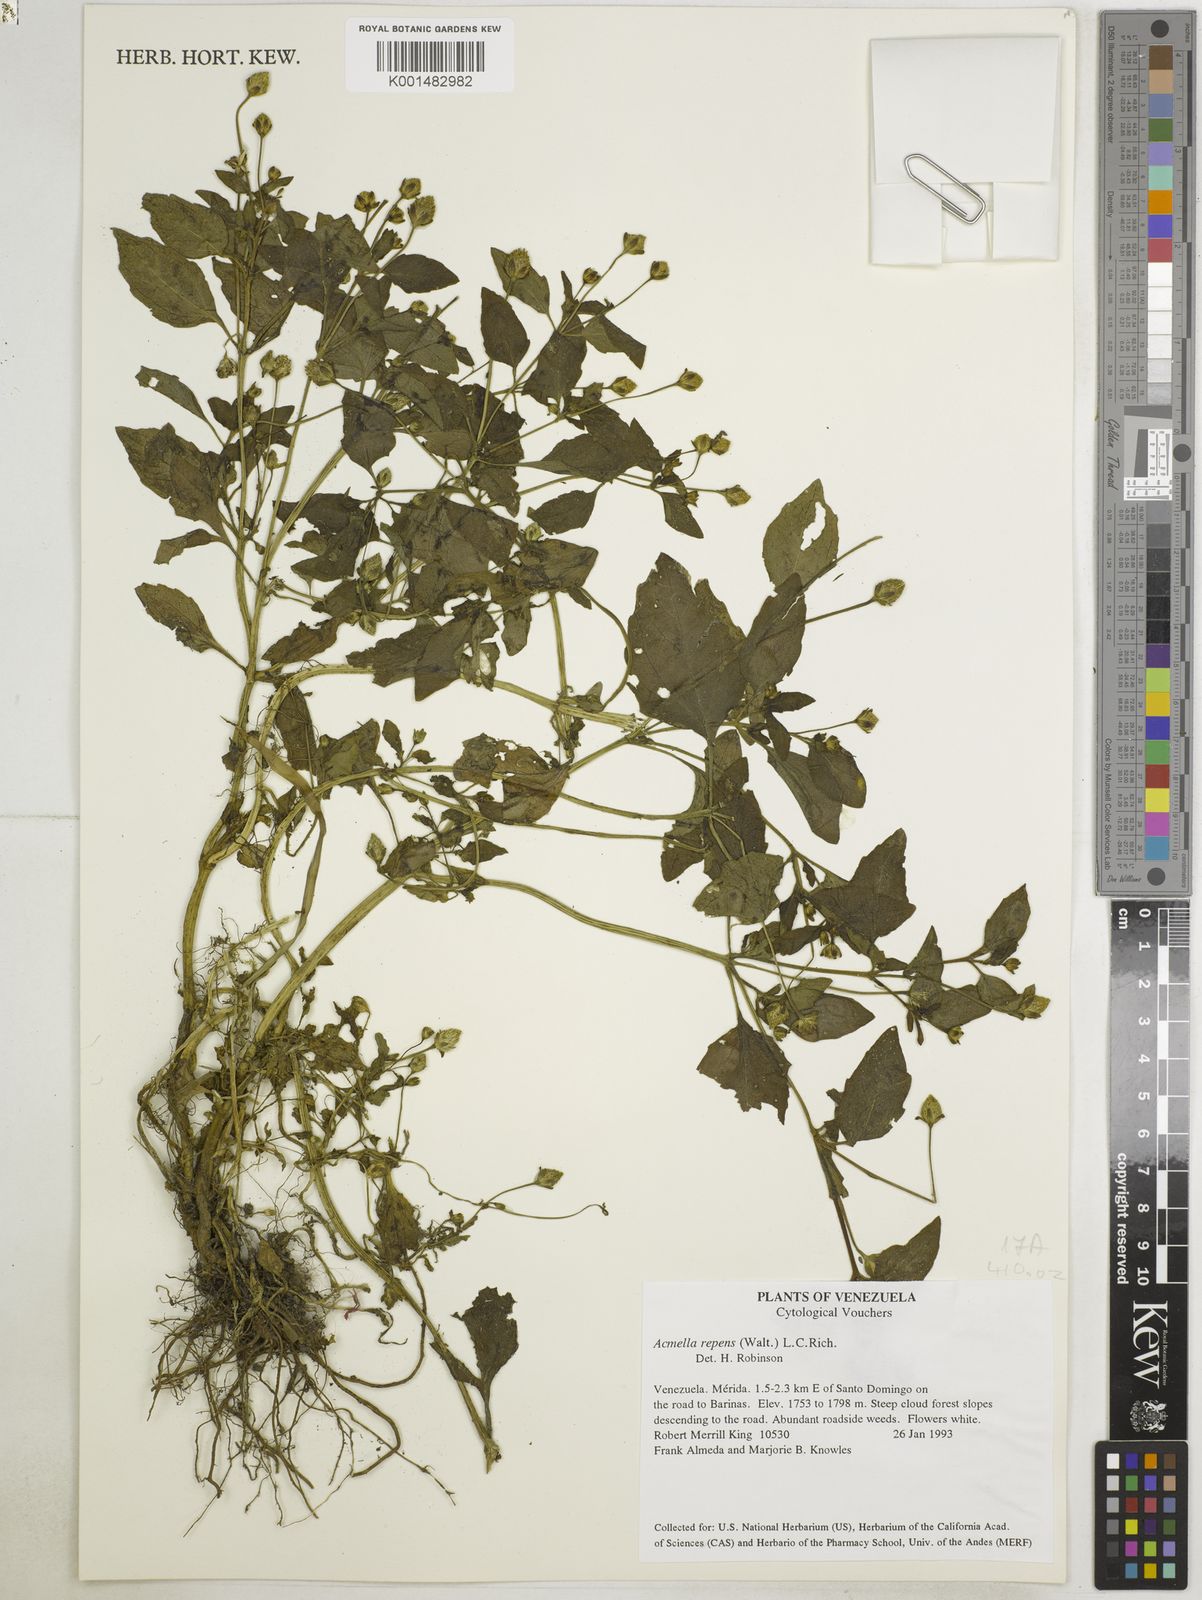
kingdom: Plantae
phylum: Tracheophyta
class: Magnoliopsida
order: Asterales
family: Asteraceae
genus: Acmella
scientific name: Acmella repens
